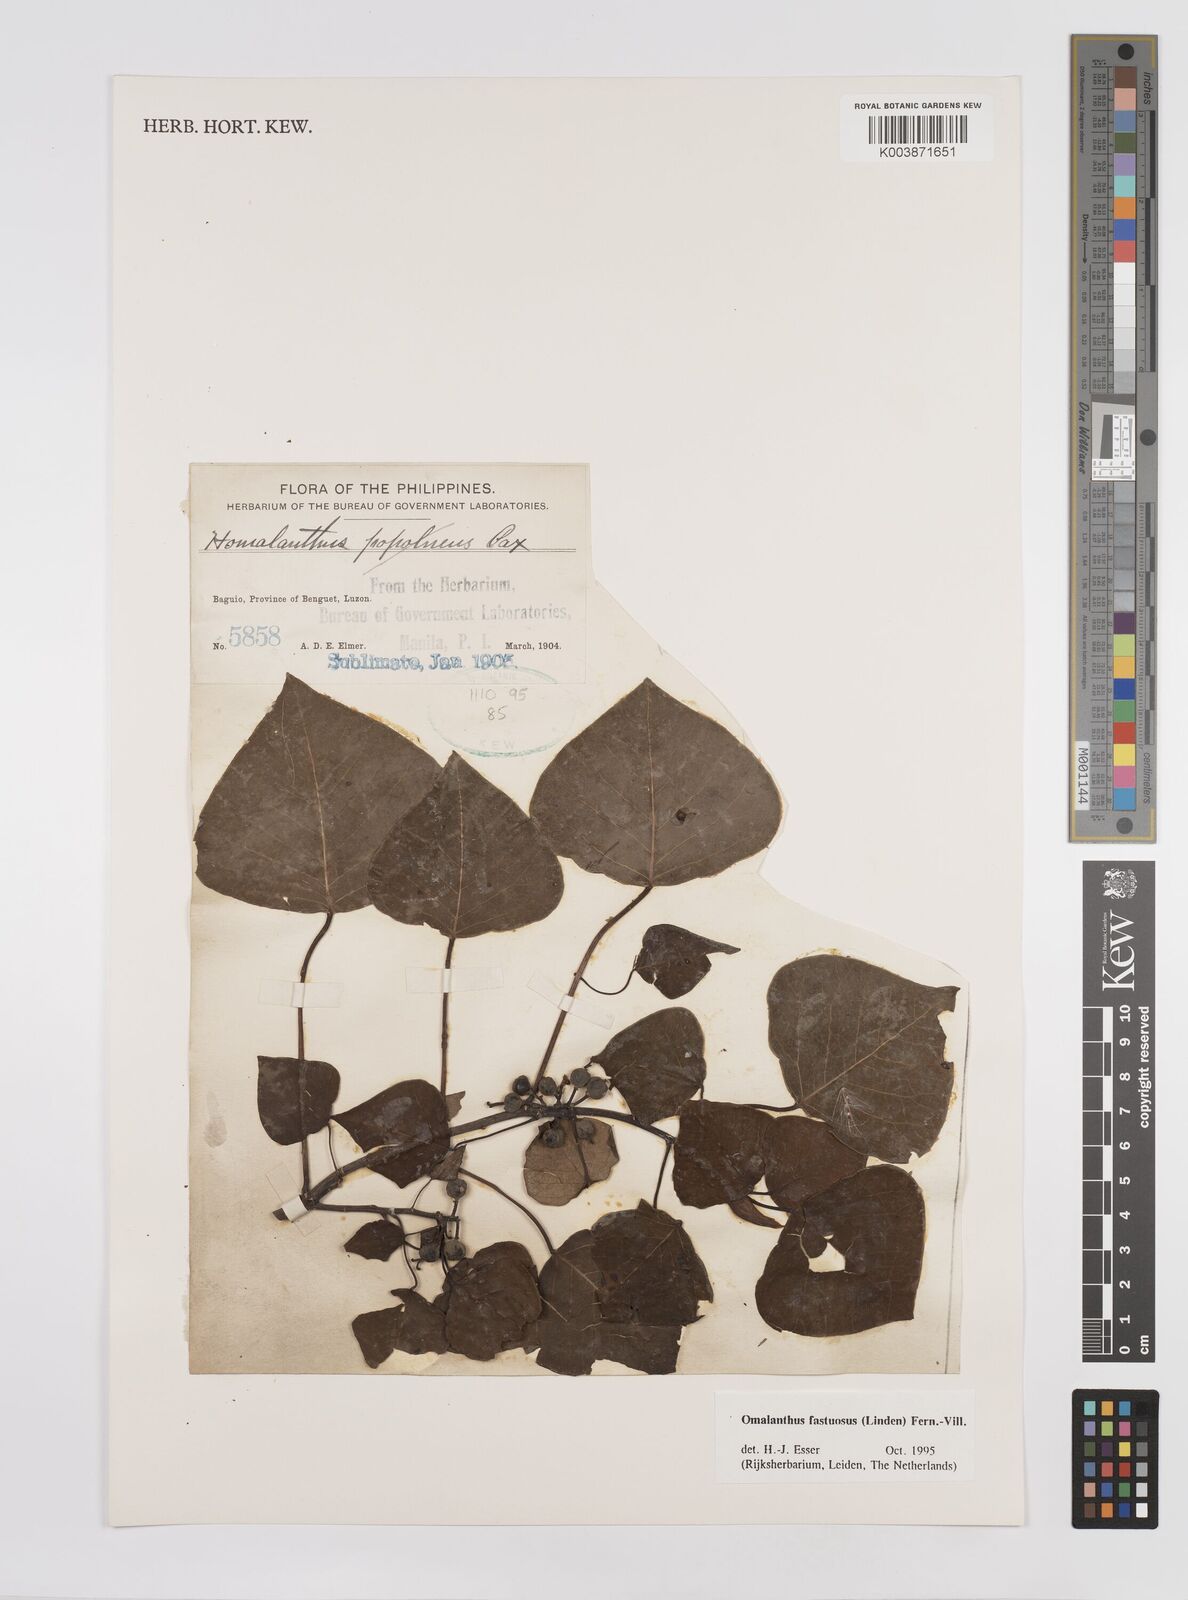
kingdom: Plantae
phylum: Tracheophyta
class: Magnoliopsida
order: Malpighiales
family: Euphorbiaceae
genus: Homalanthus
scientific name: Homalanthus fastuosus
